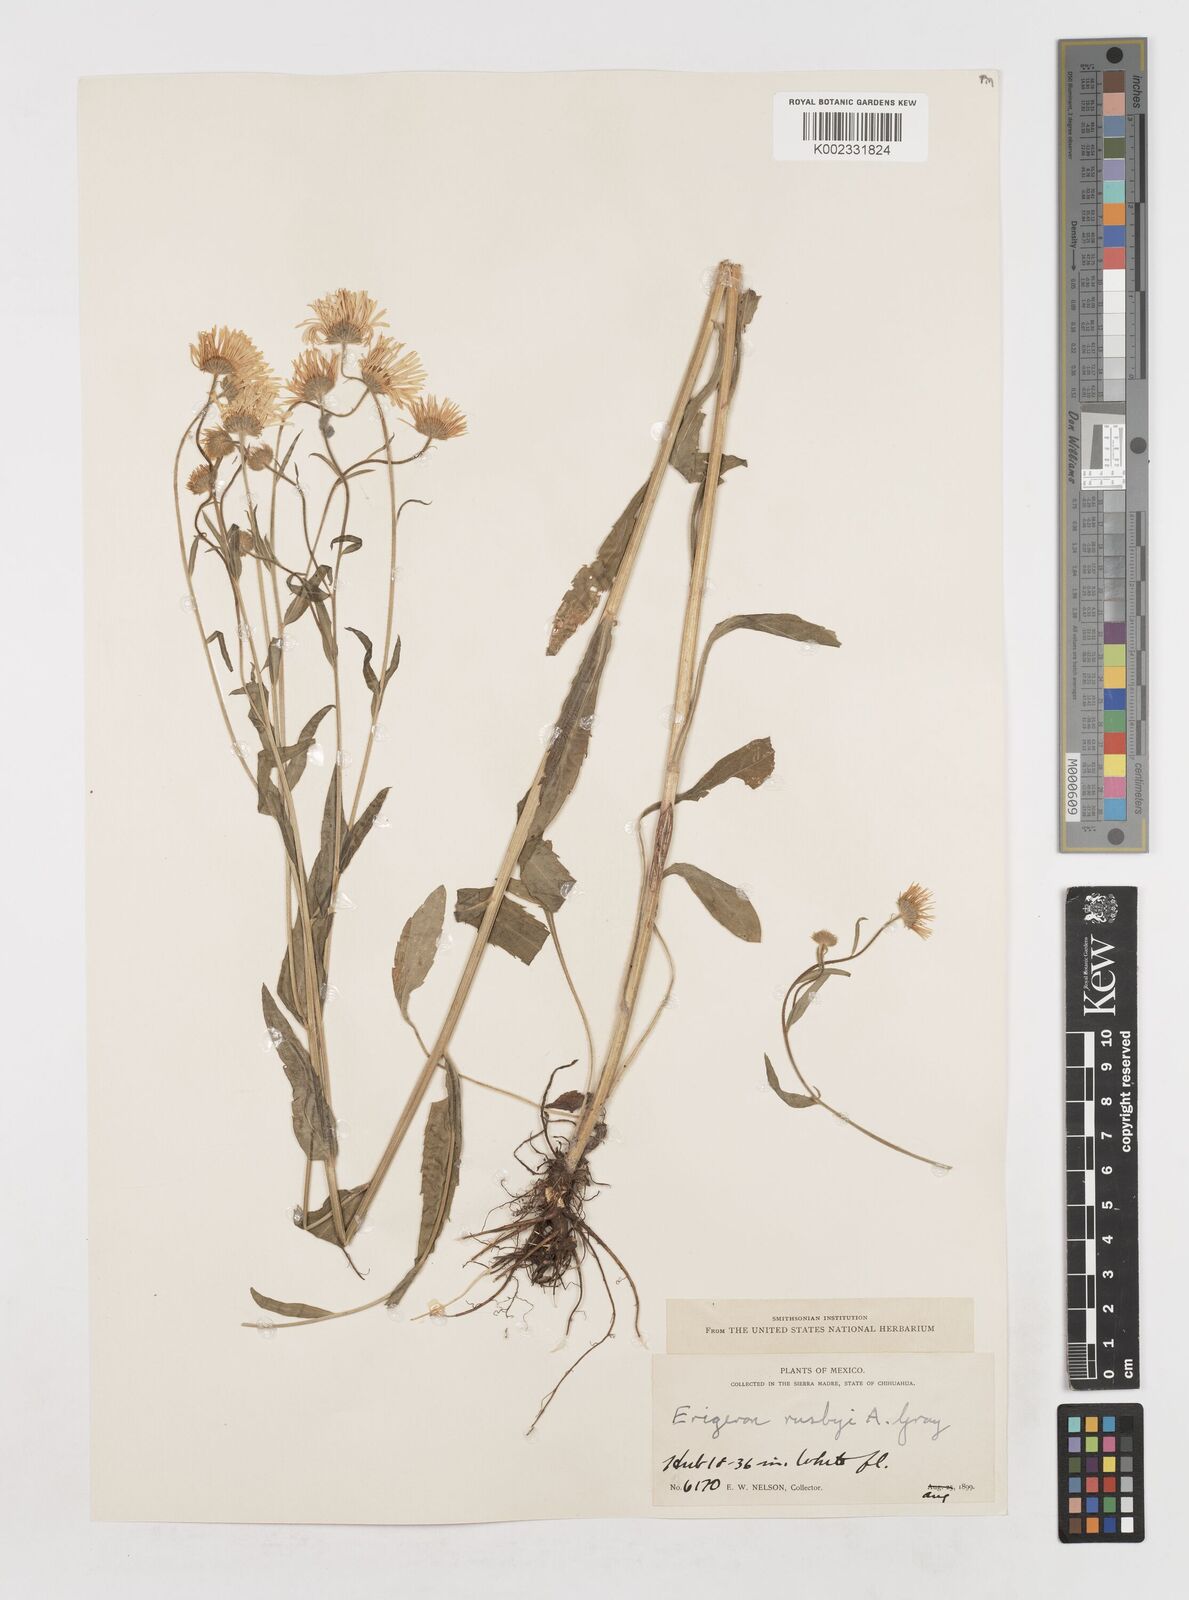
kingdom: Plantae
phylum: Tracheophyta
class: Magnoliopsida
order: Asterales
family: Asteraceae
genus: Erigeron
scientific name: Erigeron arizonicus
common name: Arizona fleabane
